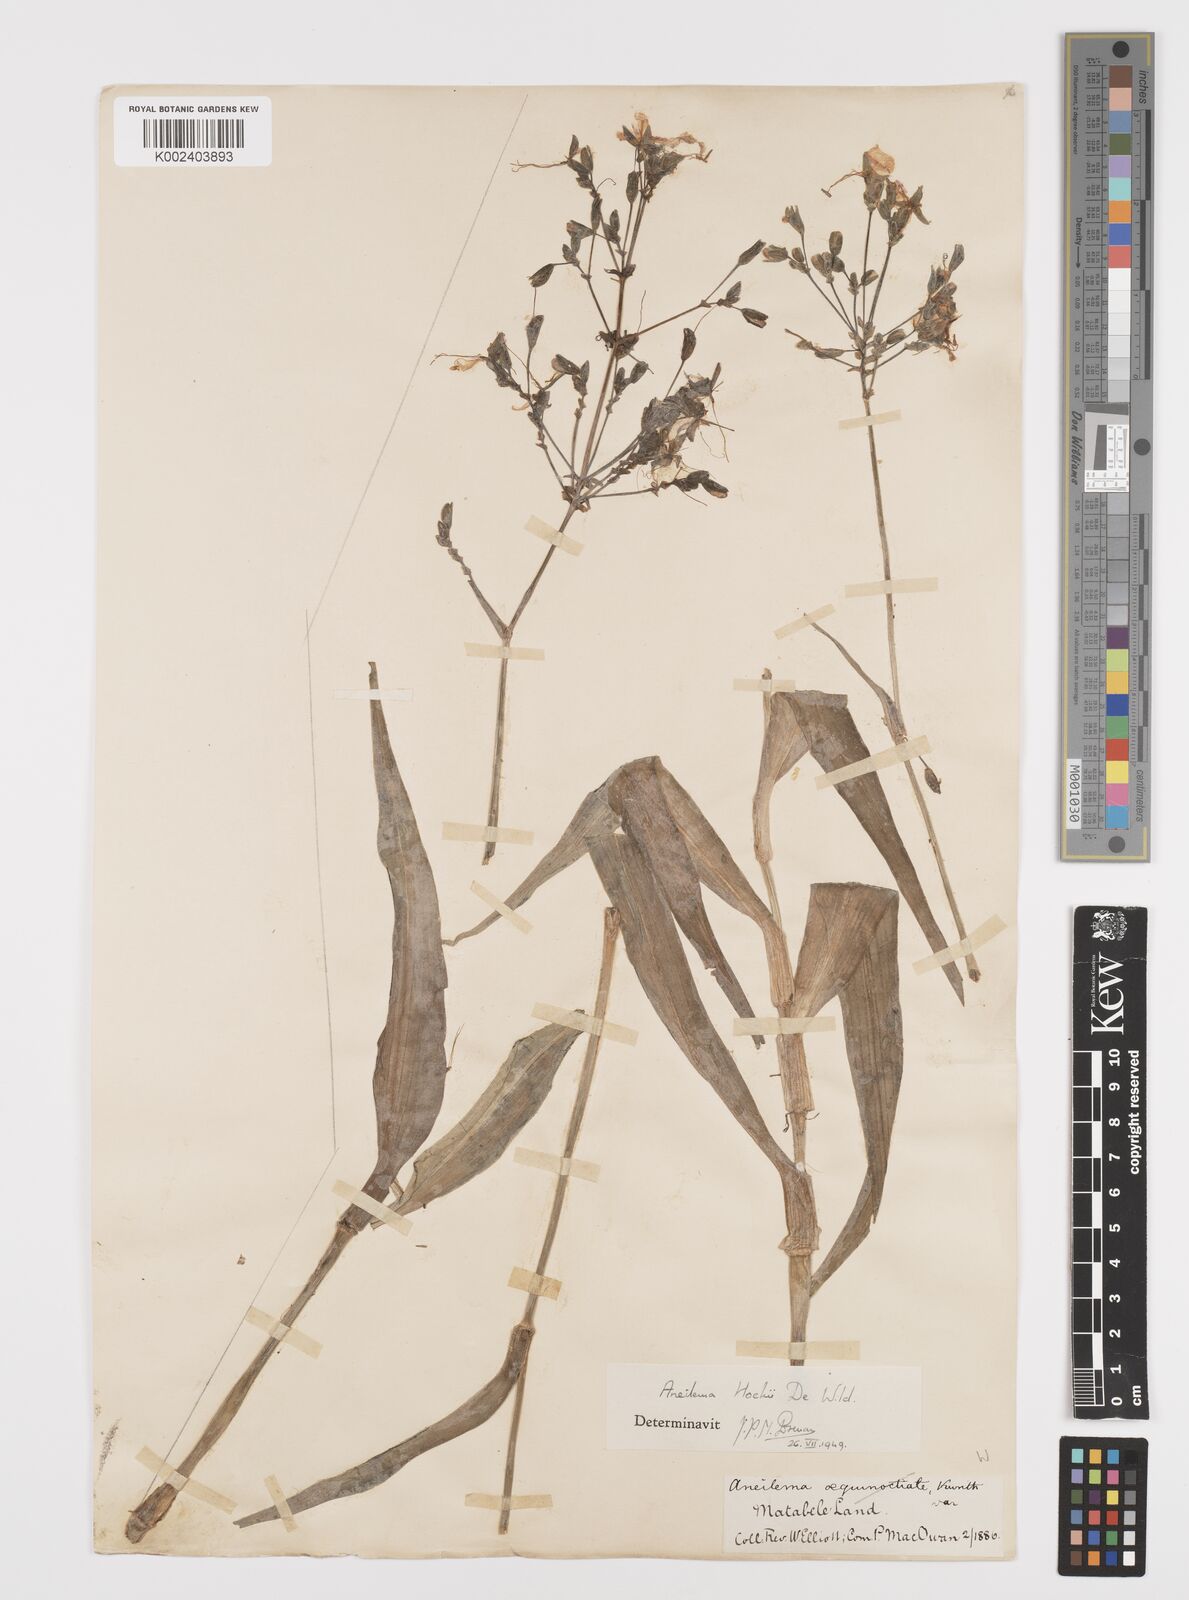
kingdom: Plantae
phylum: Tracheophyta
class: Liliopsida
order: Commelinales
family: Commelinaceae
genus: Aneilema
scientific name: Aneilema hockii
